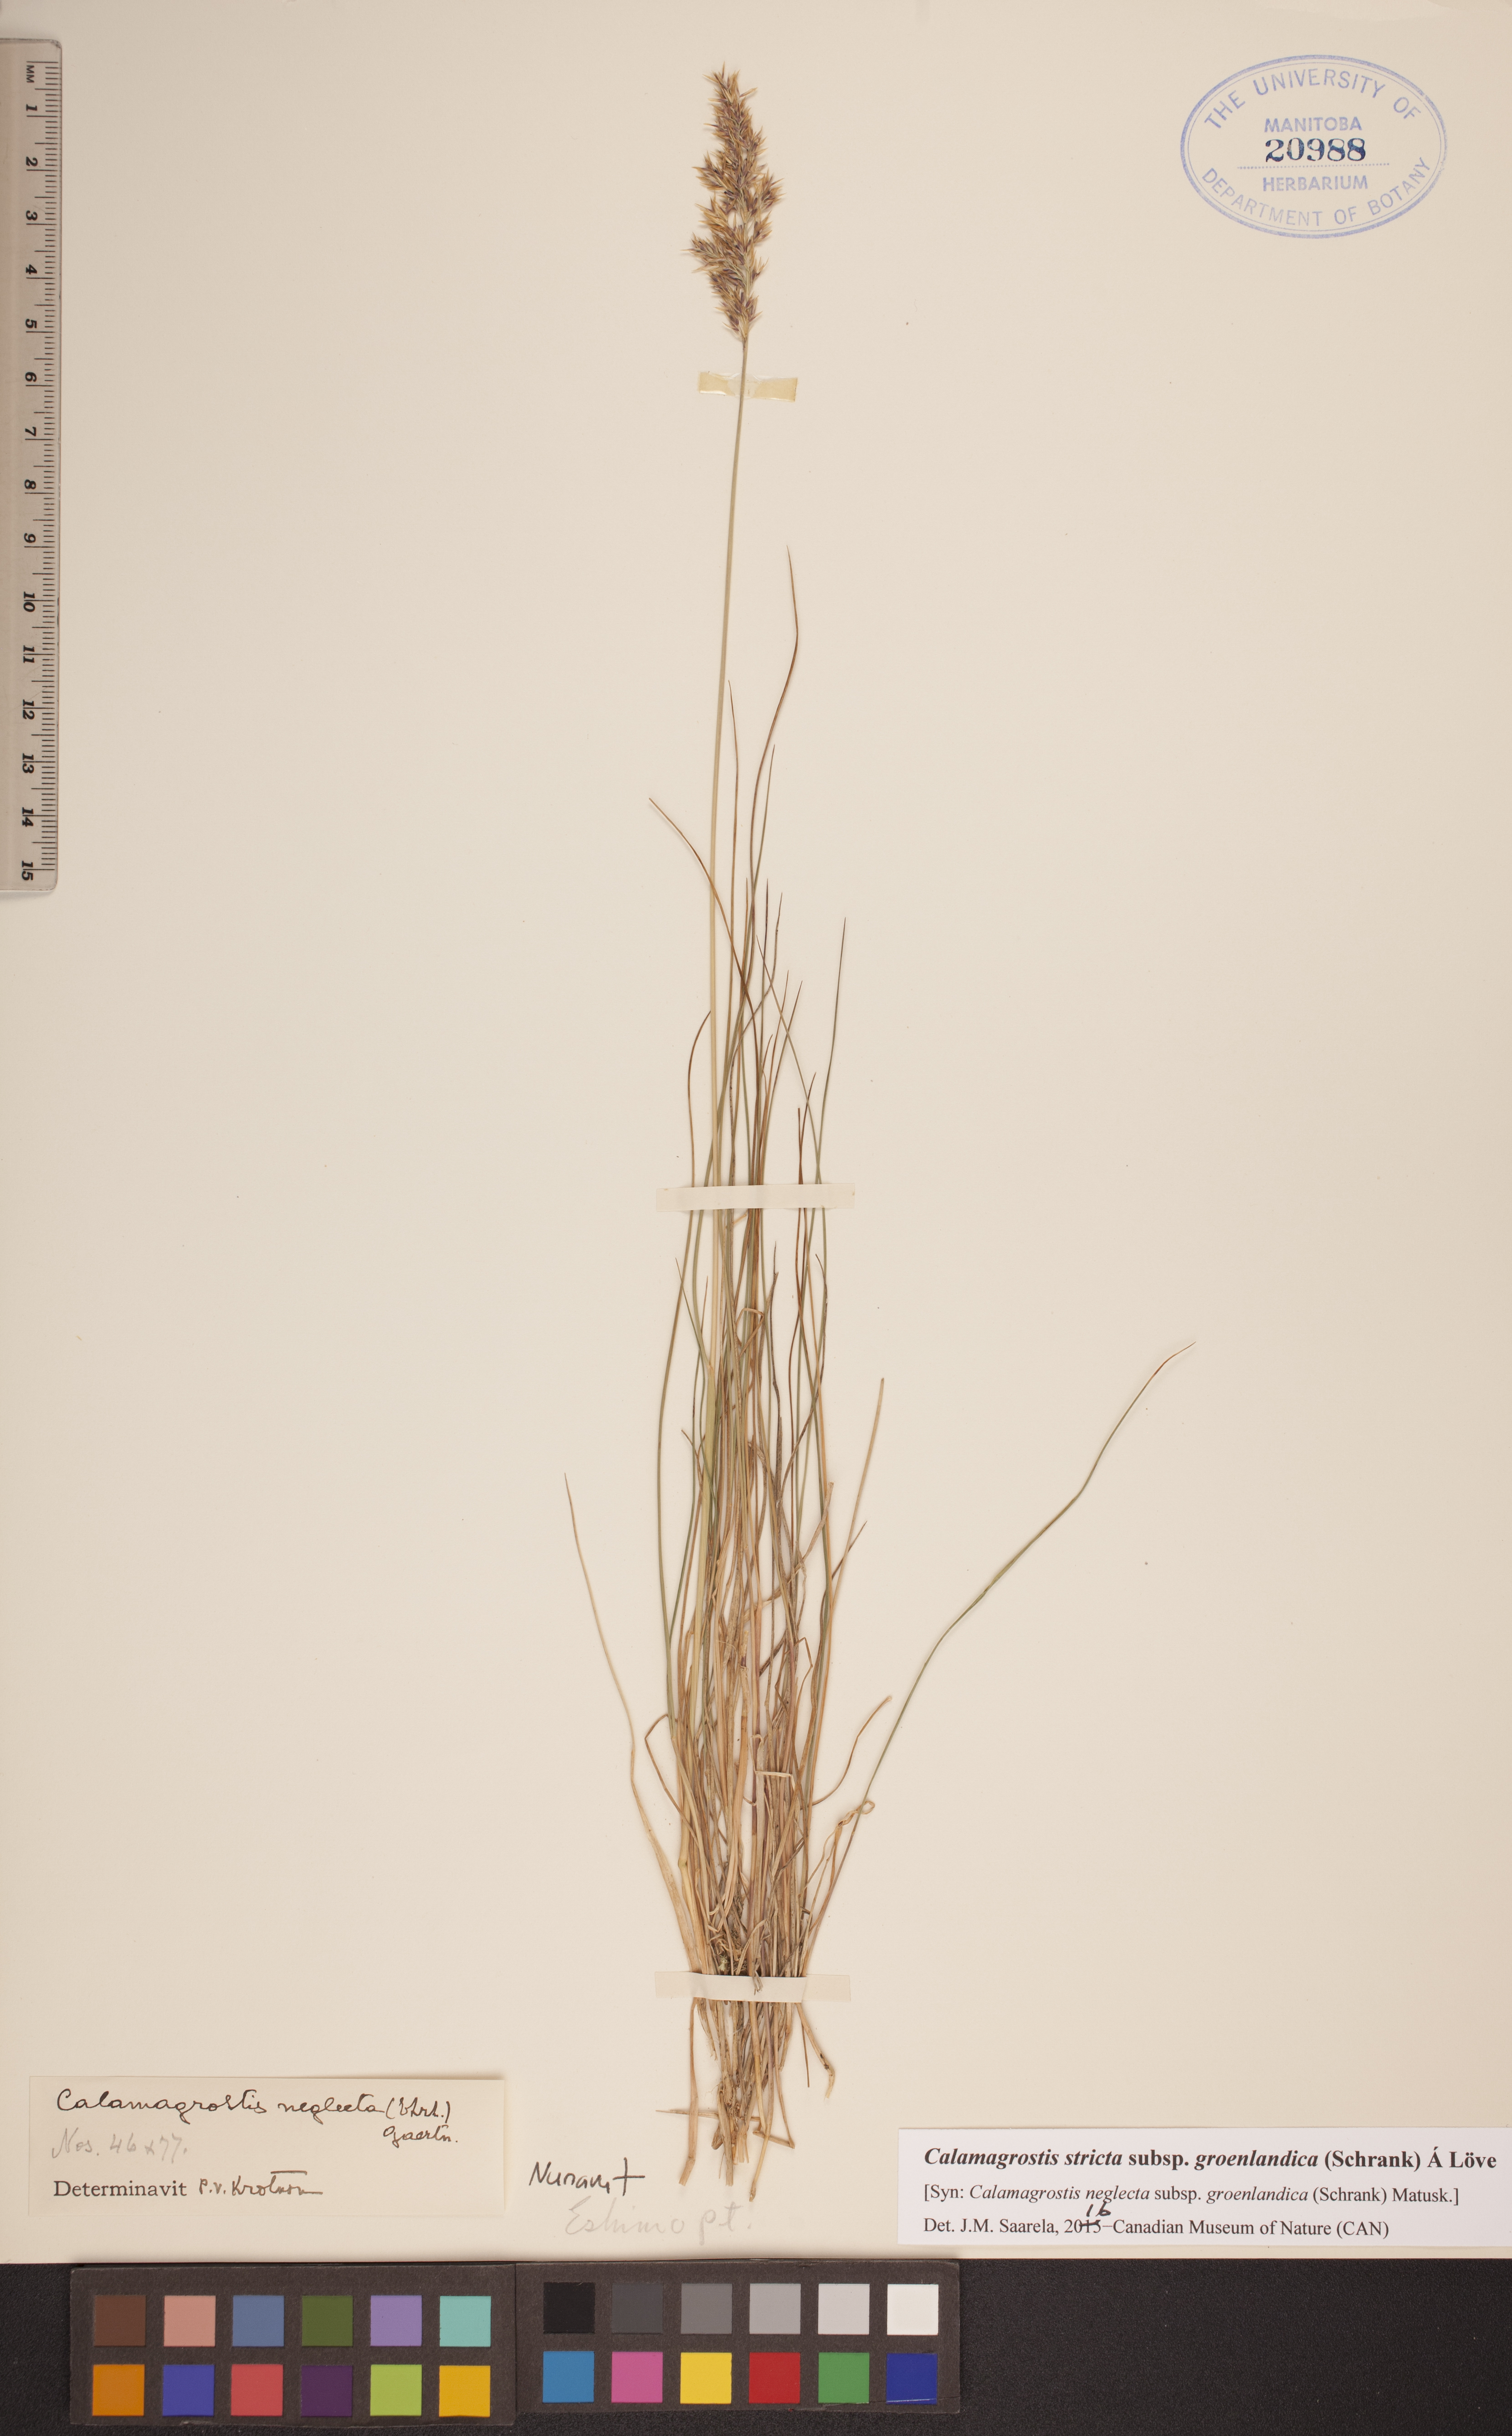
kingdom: Plantae
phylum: Tracheophyta
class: Liliopsida
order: Poales
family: Poaceae
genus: Calamagrostis
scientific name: Calamagrostis stricta
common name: Narrow small-reed
